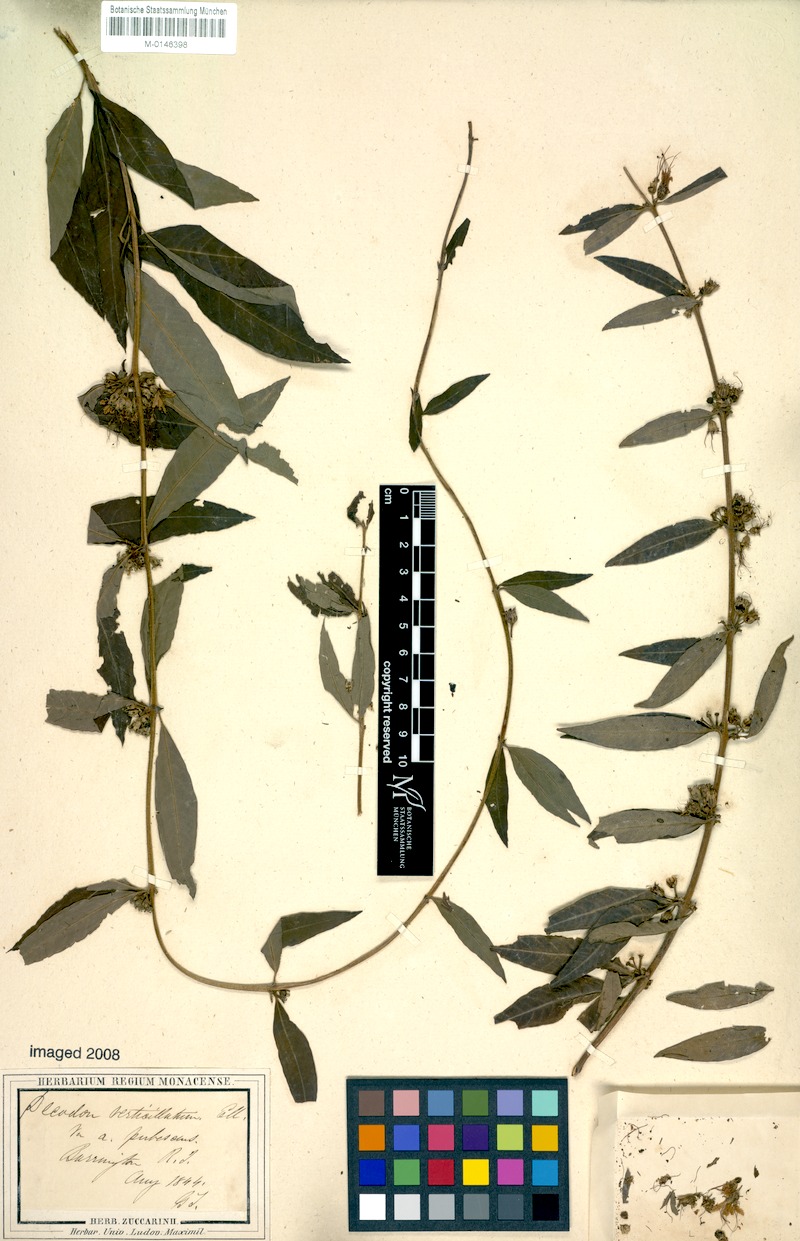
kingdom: Plantae
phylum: Tracheophyta
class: Magnoliopsida
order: Myrtales
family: Lythraceae
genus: Decodon
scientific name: Decodon verticillatus
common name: Hairy swamp loosestrife
